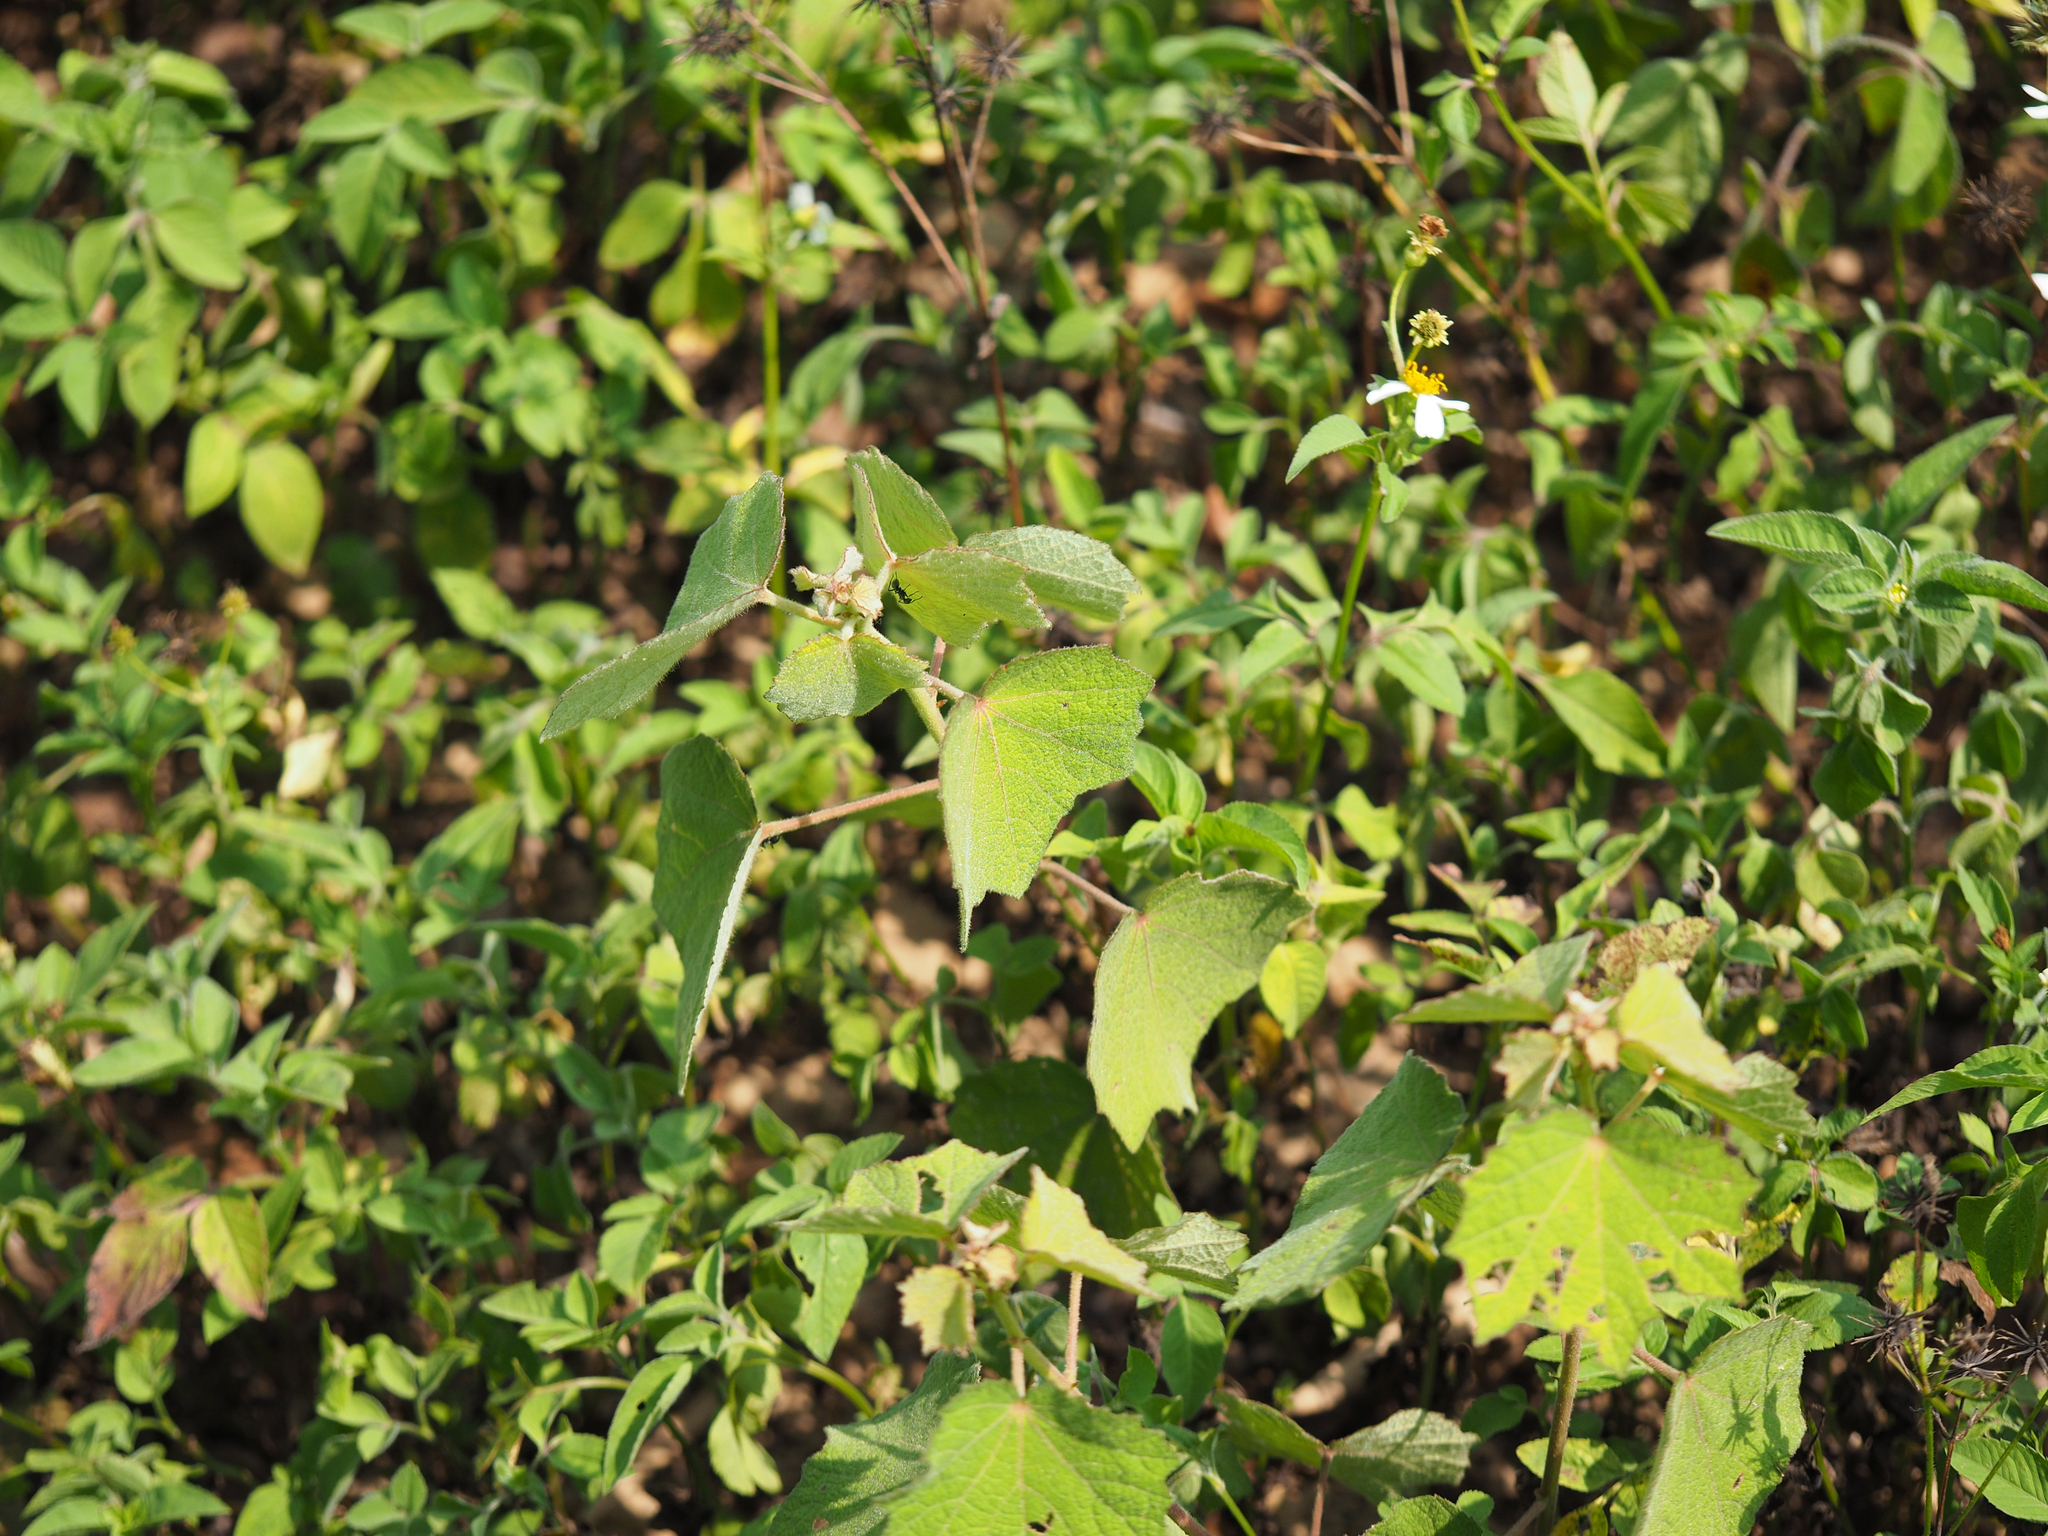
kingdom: Plantae
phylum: Tracheophyta
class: Magnoliopsida
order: Malvales
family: Malvaceae
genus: Urena
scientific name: Urena lobata
